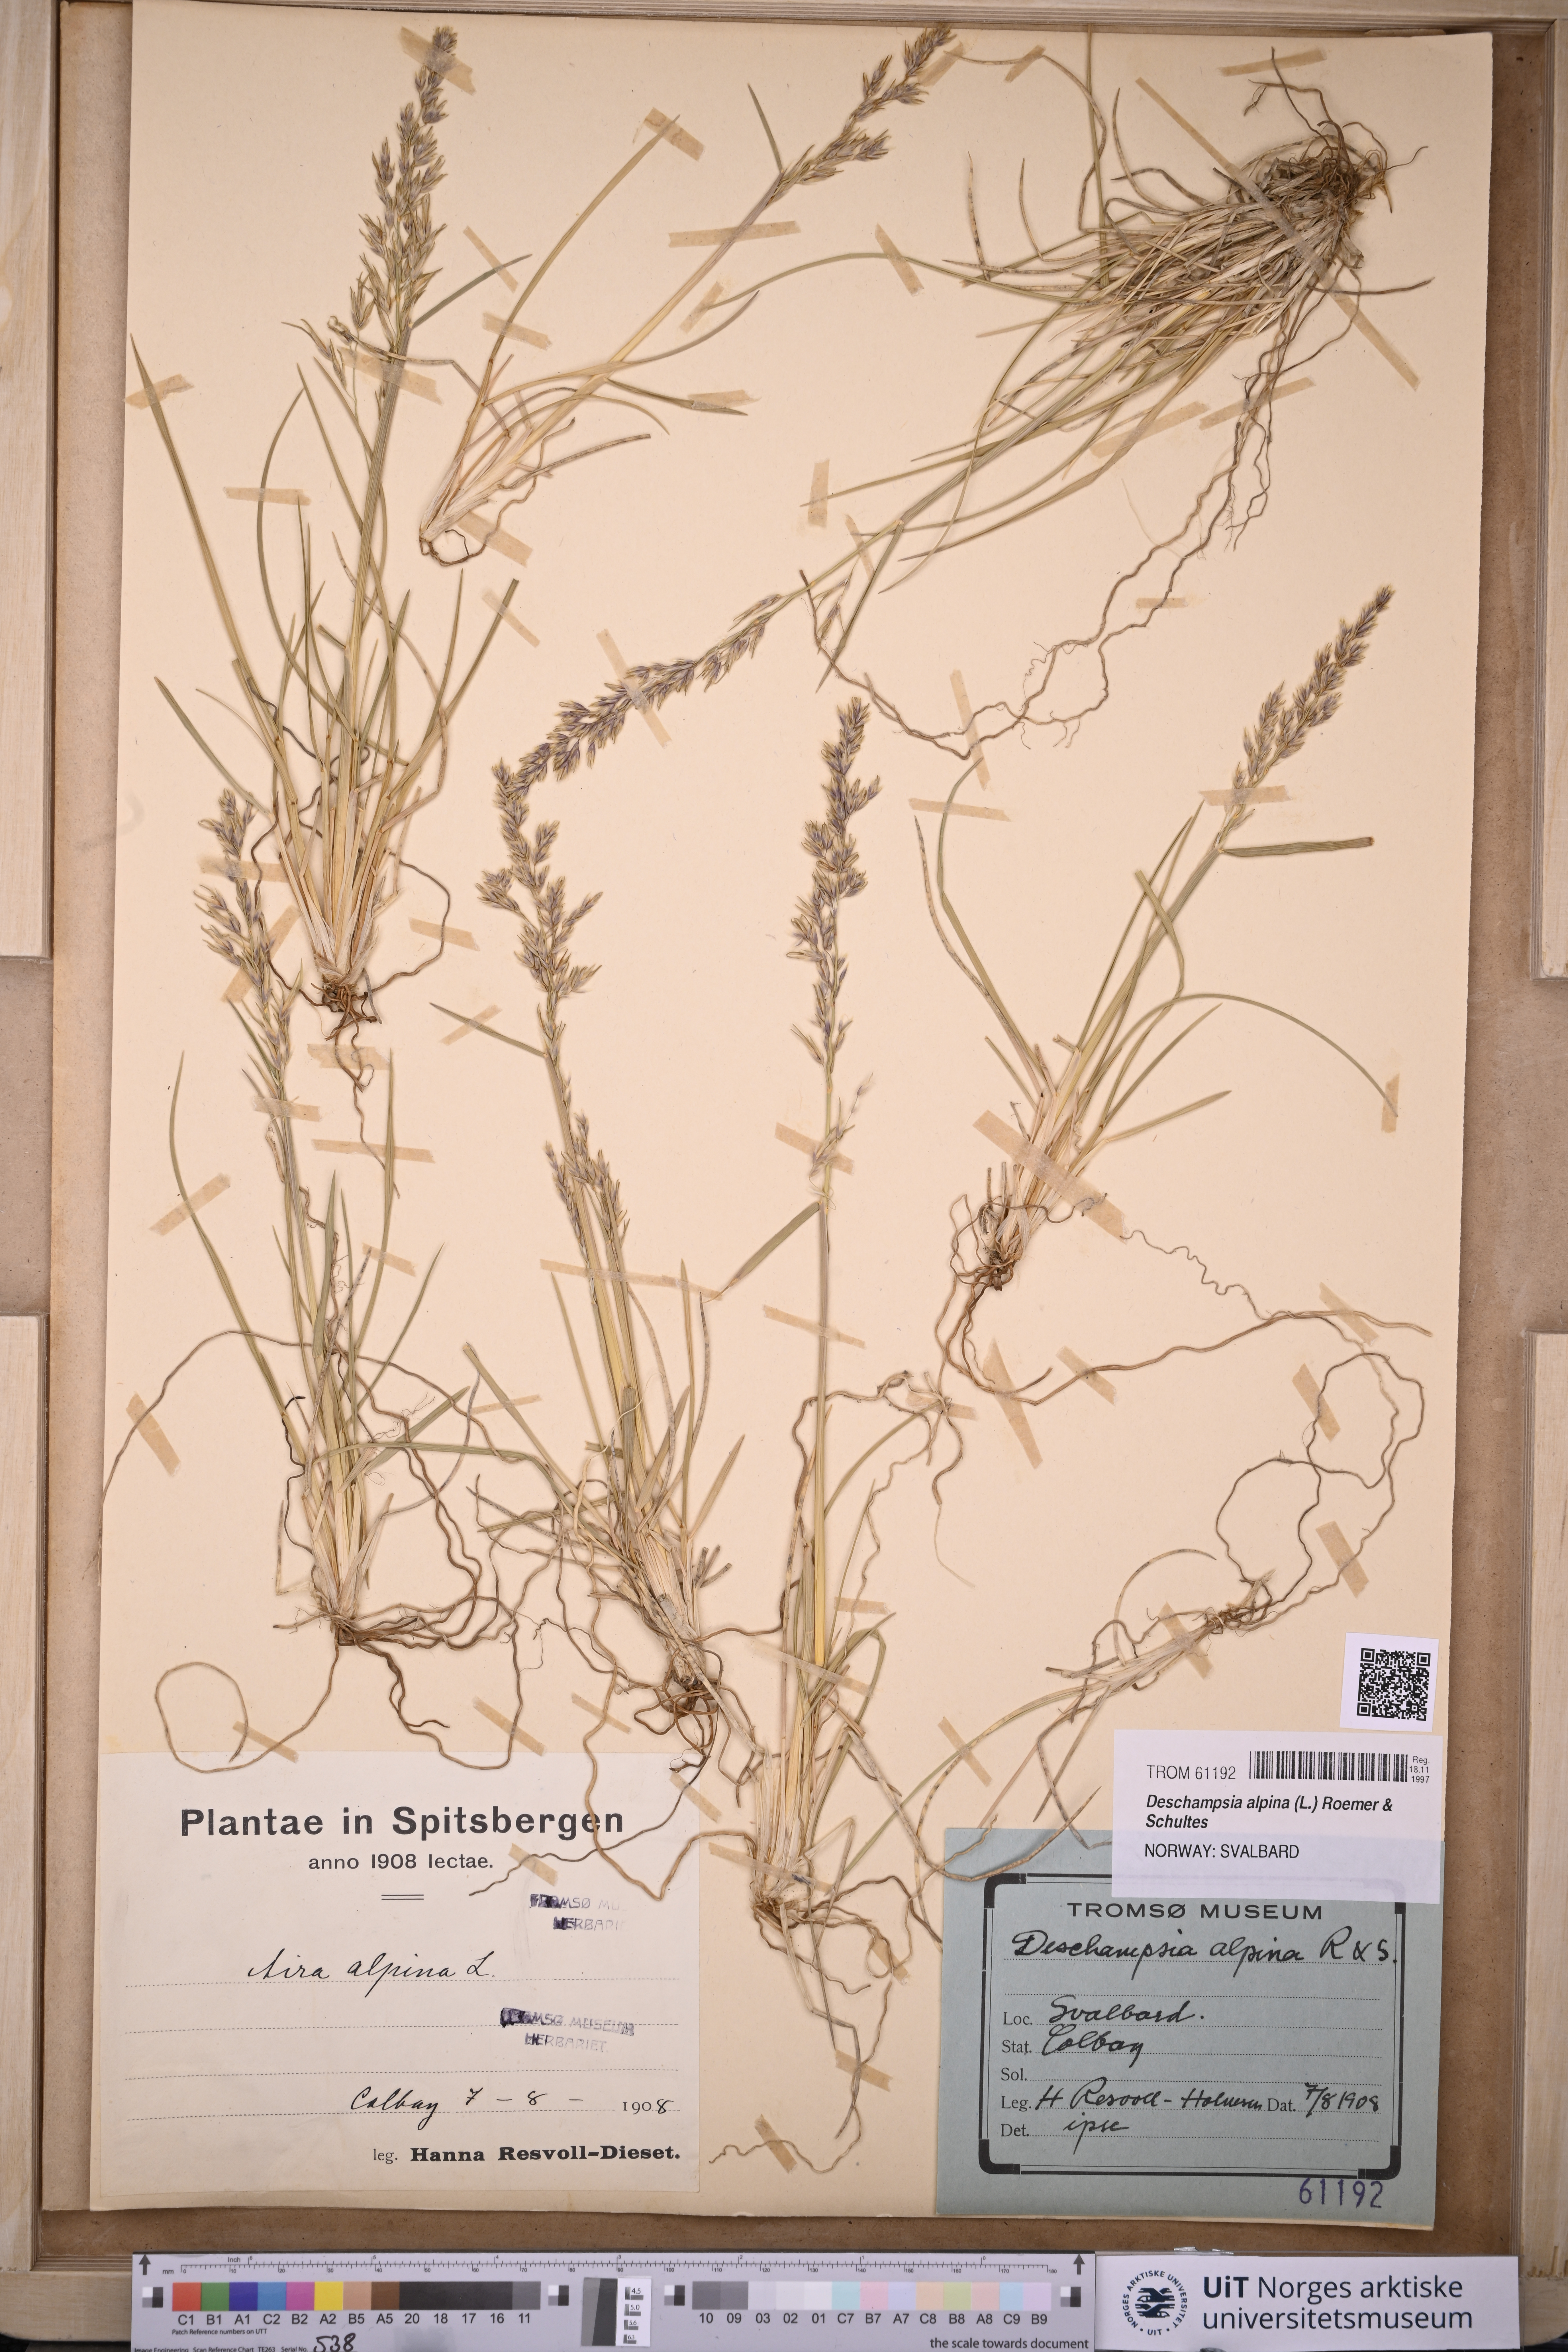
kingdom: Plantae
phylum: Tracheophyta
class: Liliopsida
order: Poales
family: Poaceae
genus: Deschampsia
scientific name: Deschampsia cespitosa
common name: Tufted hair-grass
